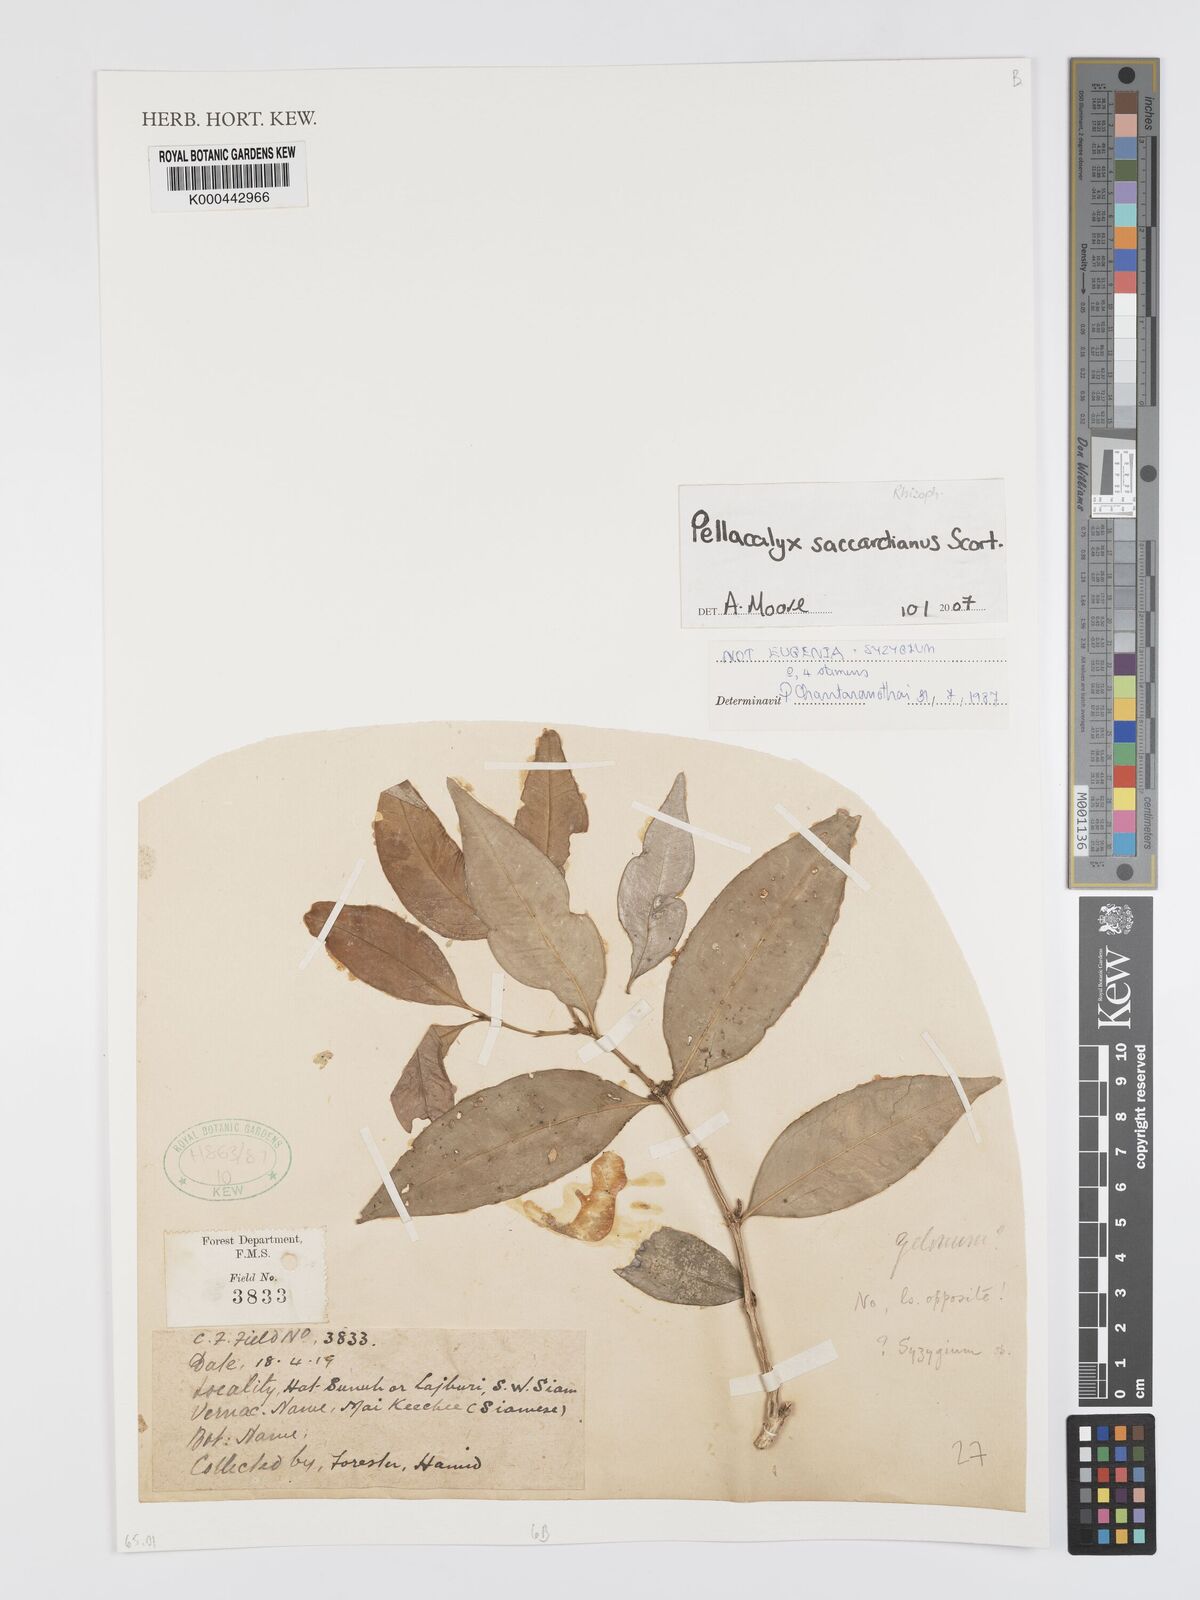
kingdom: Plantae
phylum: Tracheophyta
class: Magnoliopsida
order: Malpighiales
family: Rhizophoraceae
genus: Pellacalyx
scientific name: Pellacalyx saccardianus
